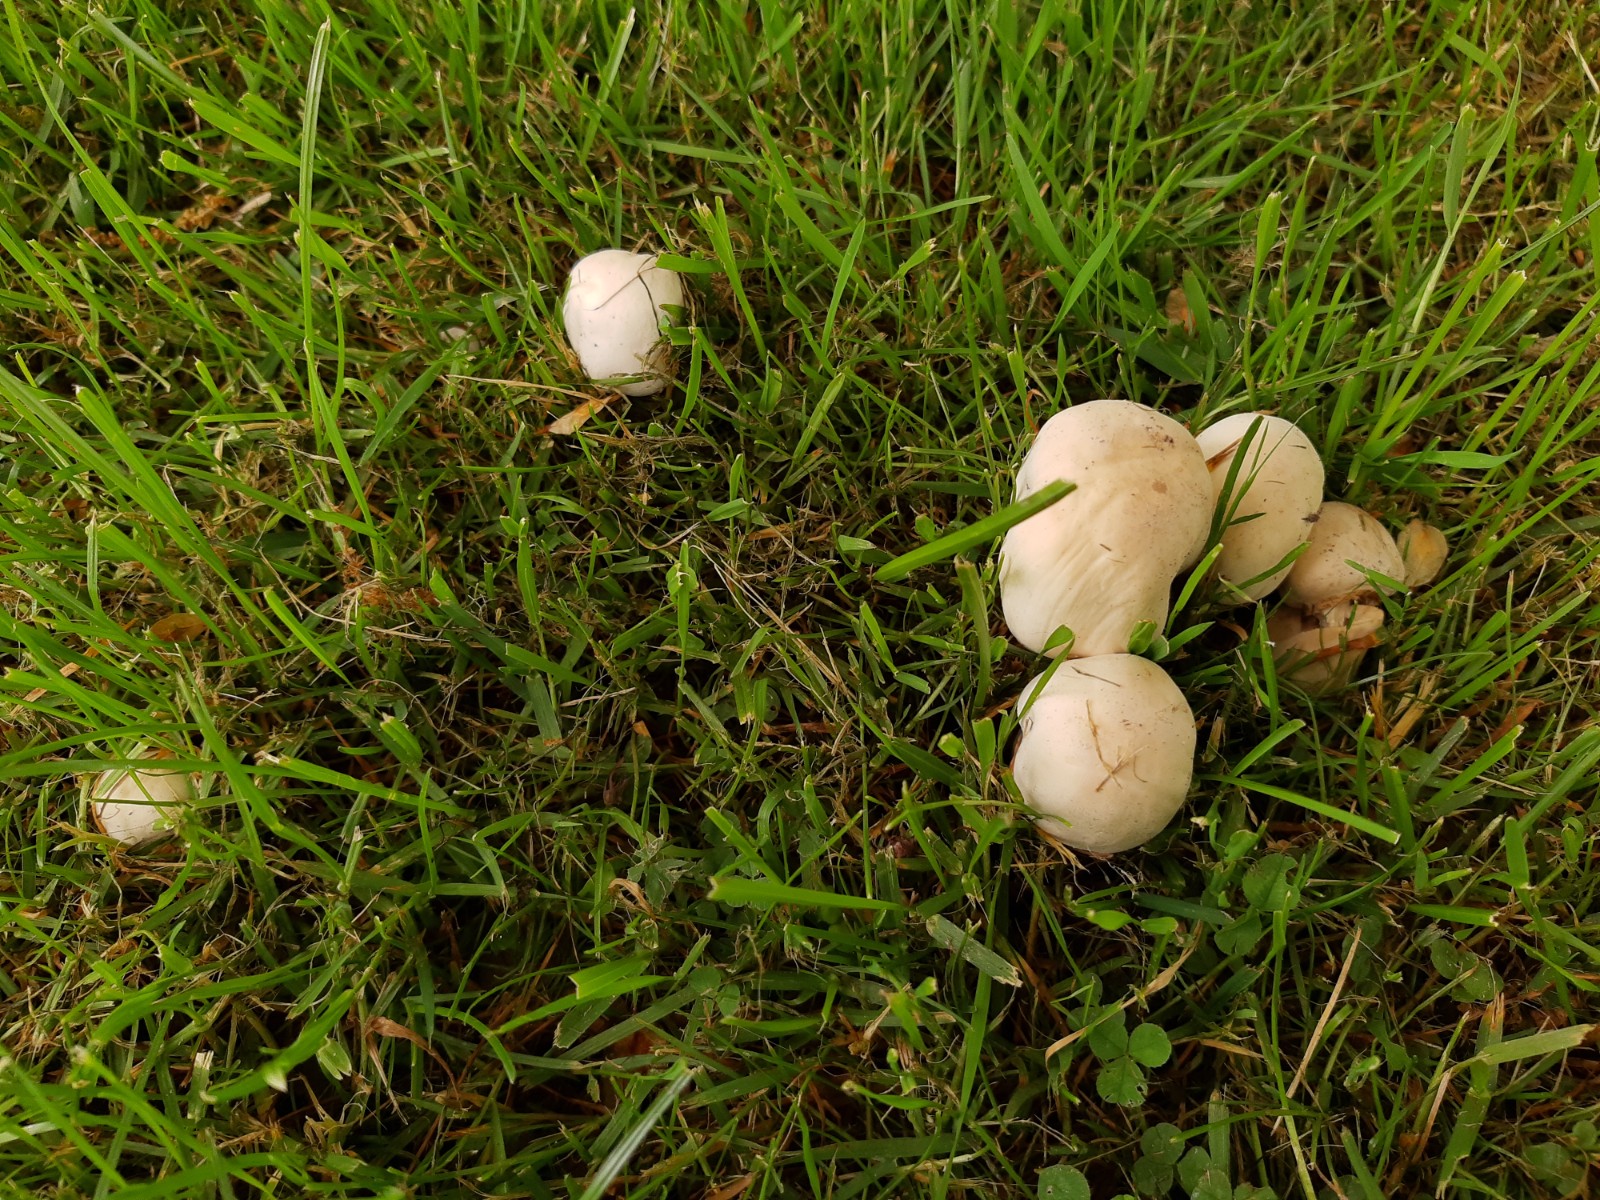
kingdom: Fungi
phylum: Basidiomycota
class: Agaricomycetes
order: Agaricales
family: Agaricaceae
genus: Agaricus
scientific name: Agaricus xanthodermus
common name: karbol-champignon
